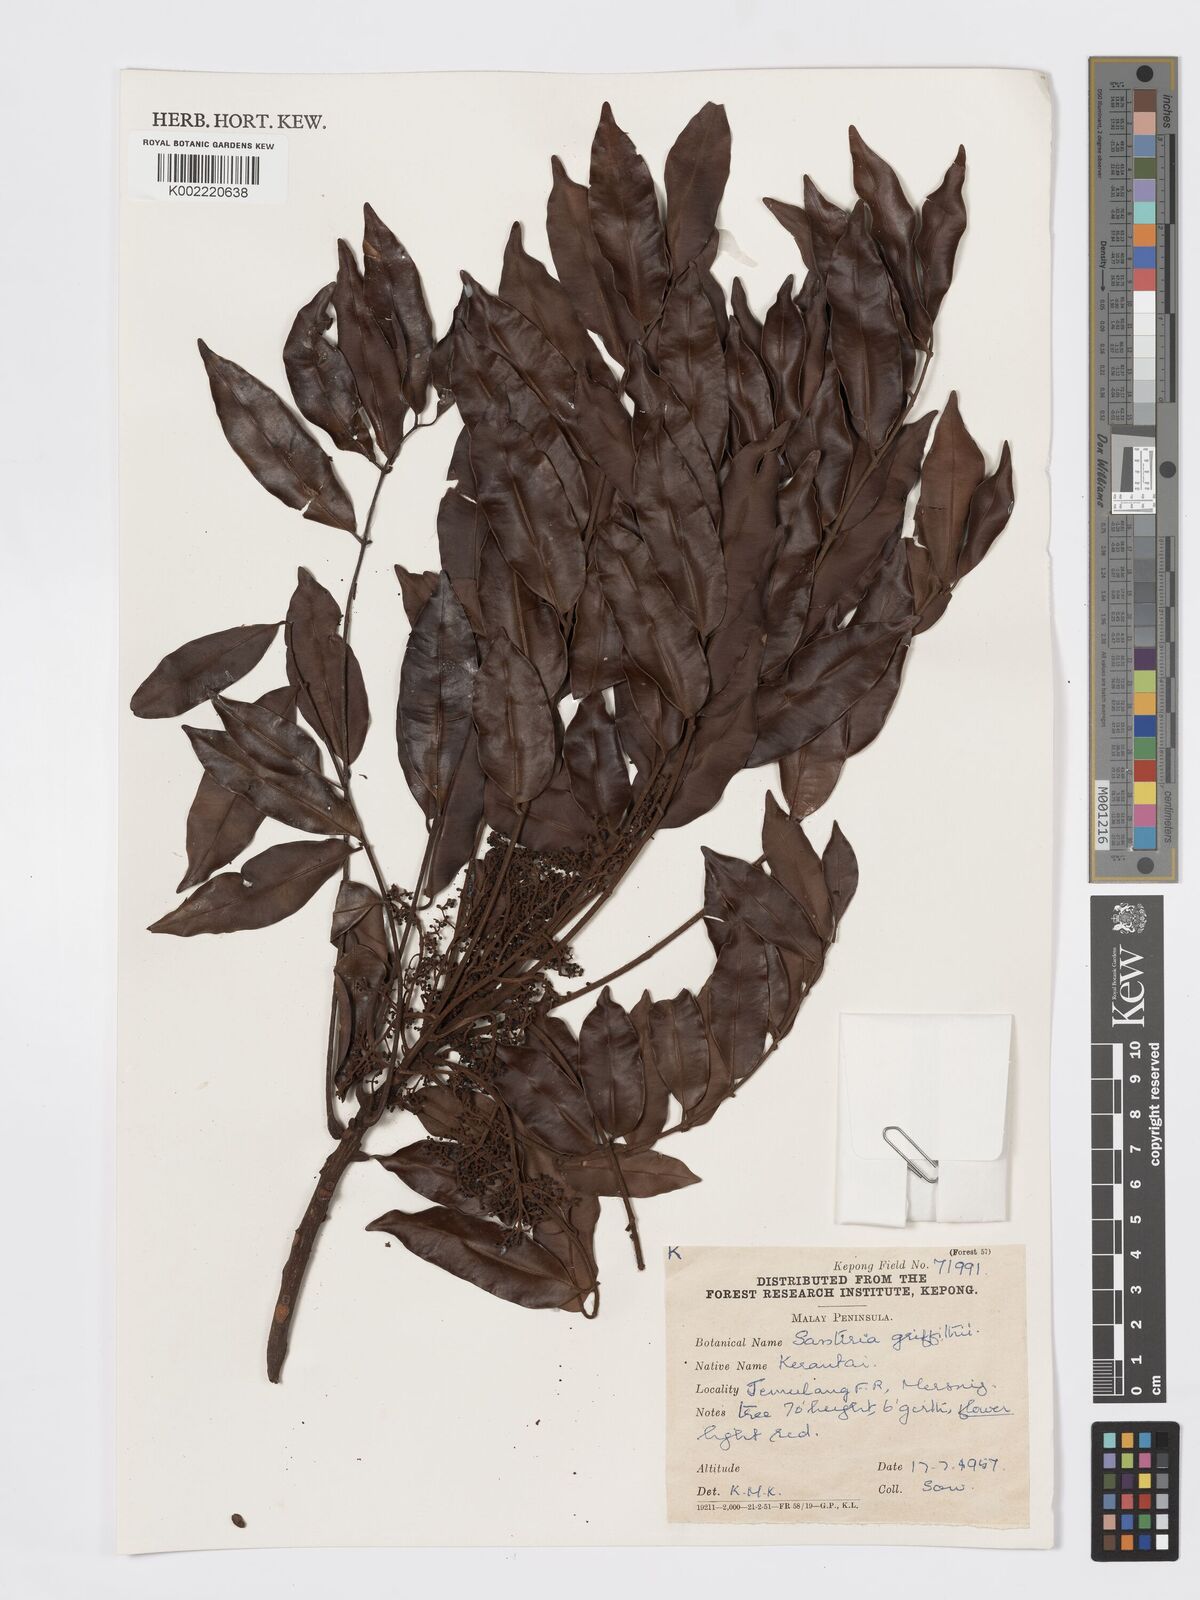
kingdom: Plantae
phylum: Tracheophyta
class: Magnoliopsida
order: Sapindales
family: Burseraceae
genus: Santiria
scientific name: Santiria griffithii
